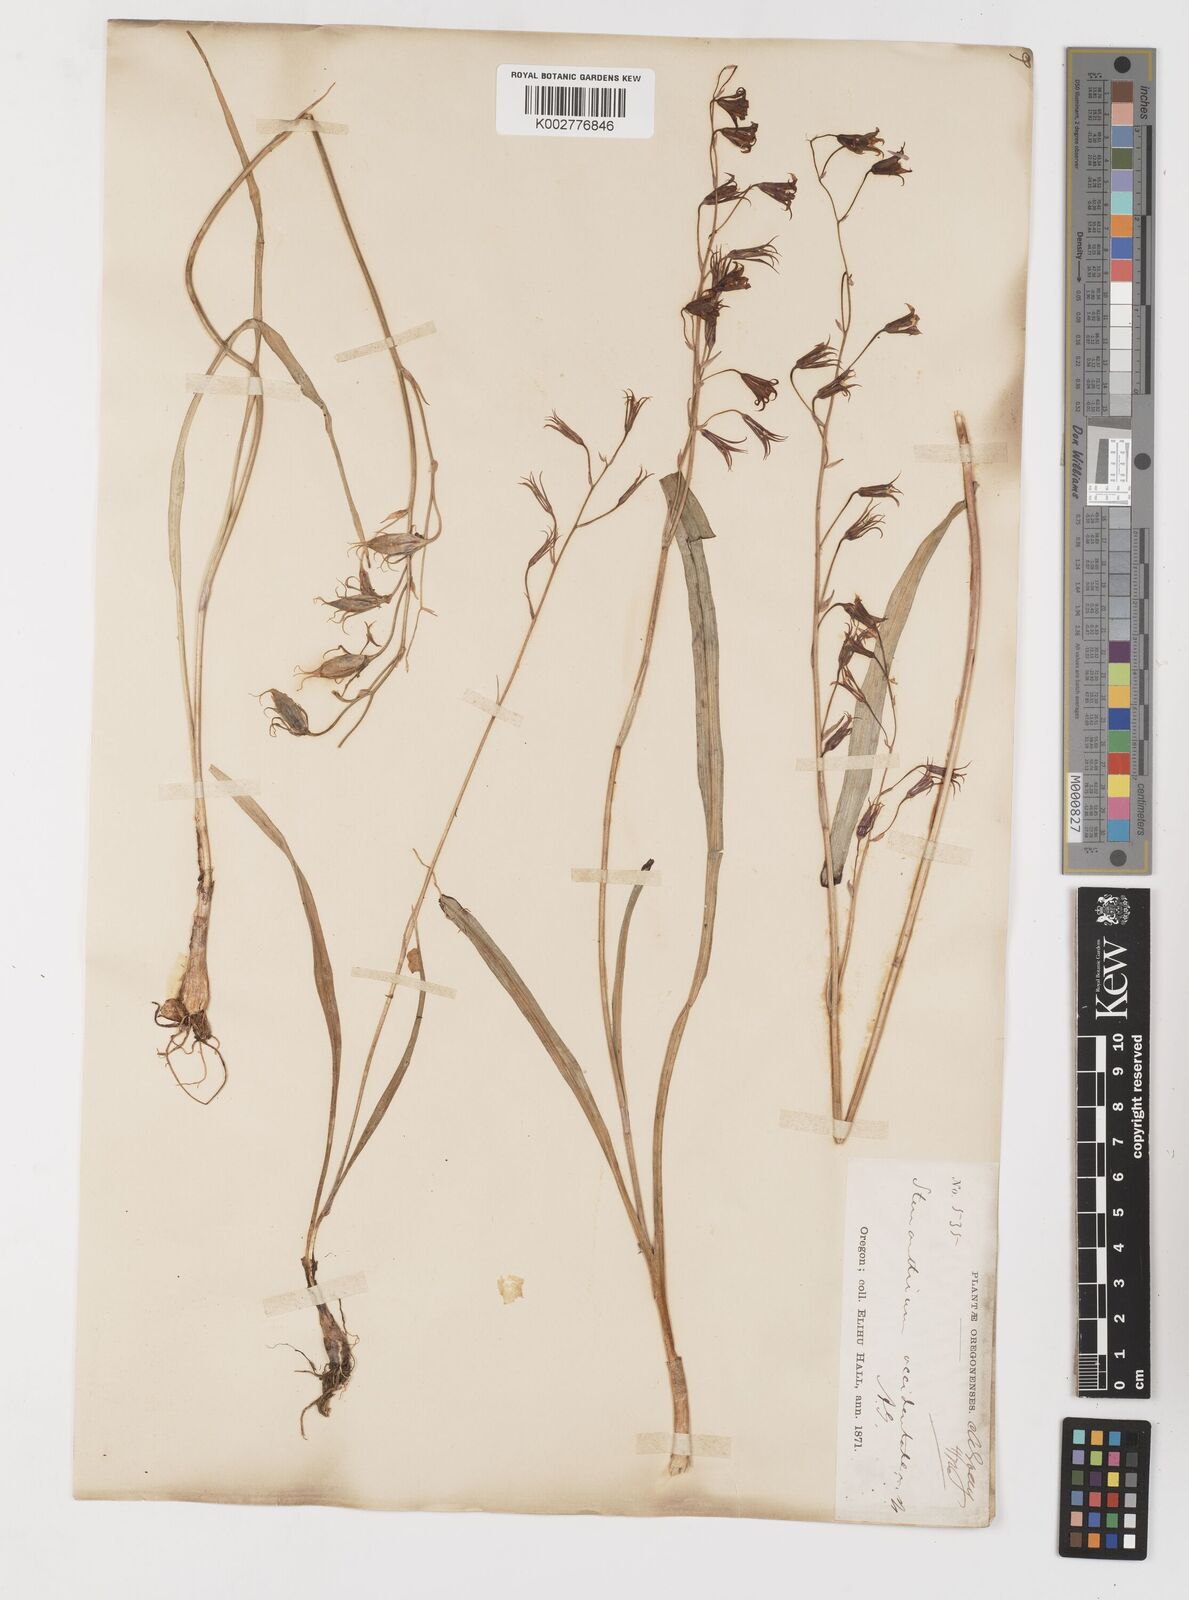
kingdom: Plantae
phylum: Tracheophyta
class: Liliopsida
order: Liliales
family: Melanthiaceae
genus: Anticlea
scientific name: Anticlea occidentalis
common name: Bronze-bells
